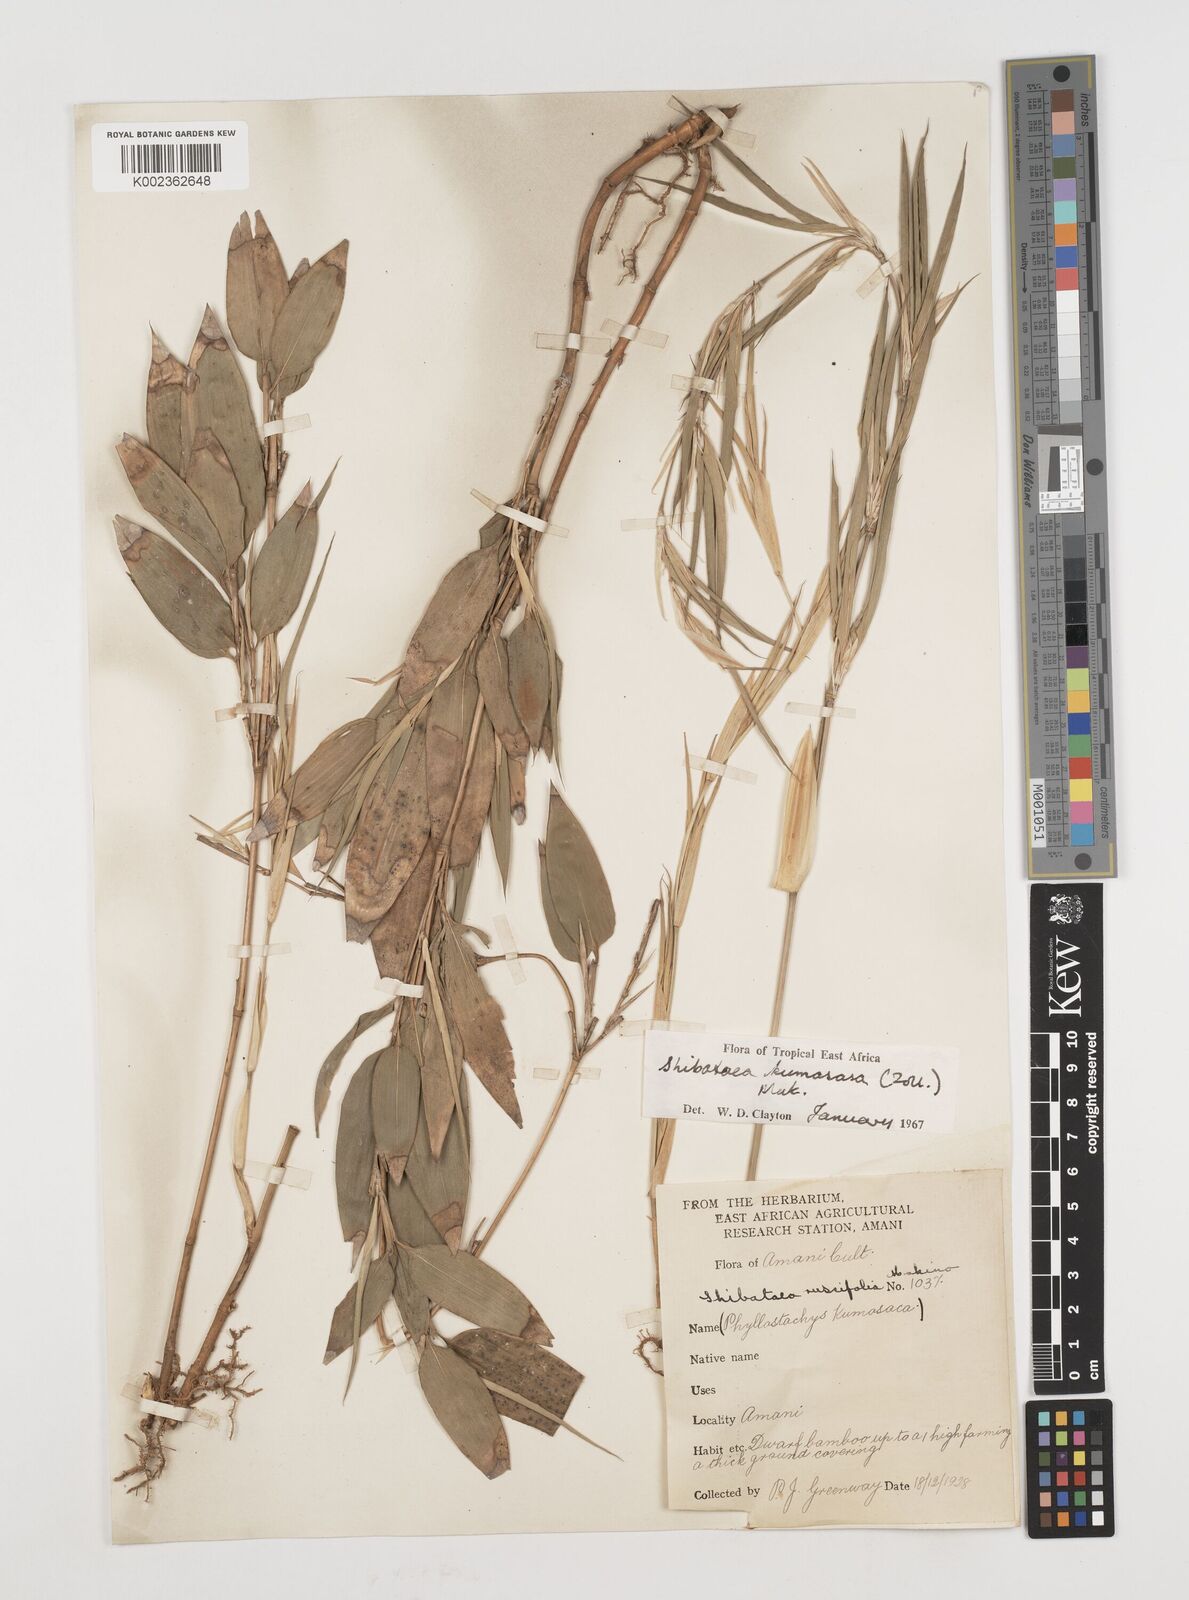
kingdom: Plantae
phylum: Tracheophyta
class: Liliopsida
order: Poales
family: Poaceae
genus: Shibataea
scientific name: Shibataea kumasasa
